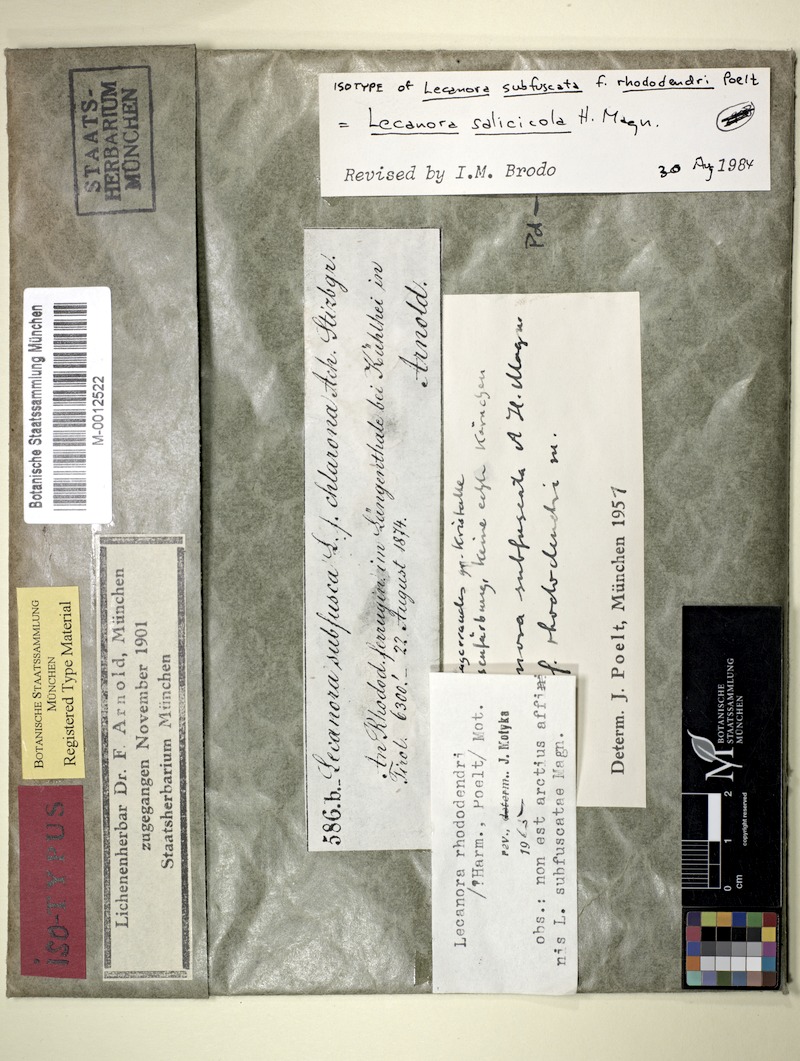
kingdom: Fungi
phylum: Ascomycota
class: Lecanoromycetes
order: Lecanorales
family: Lecanoraceae
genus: Lecanora
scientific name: Lecanora salicicola
